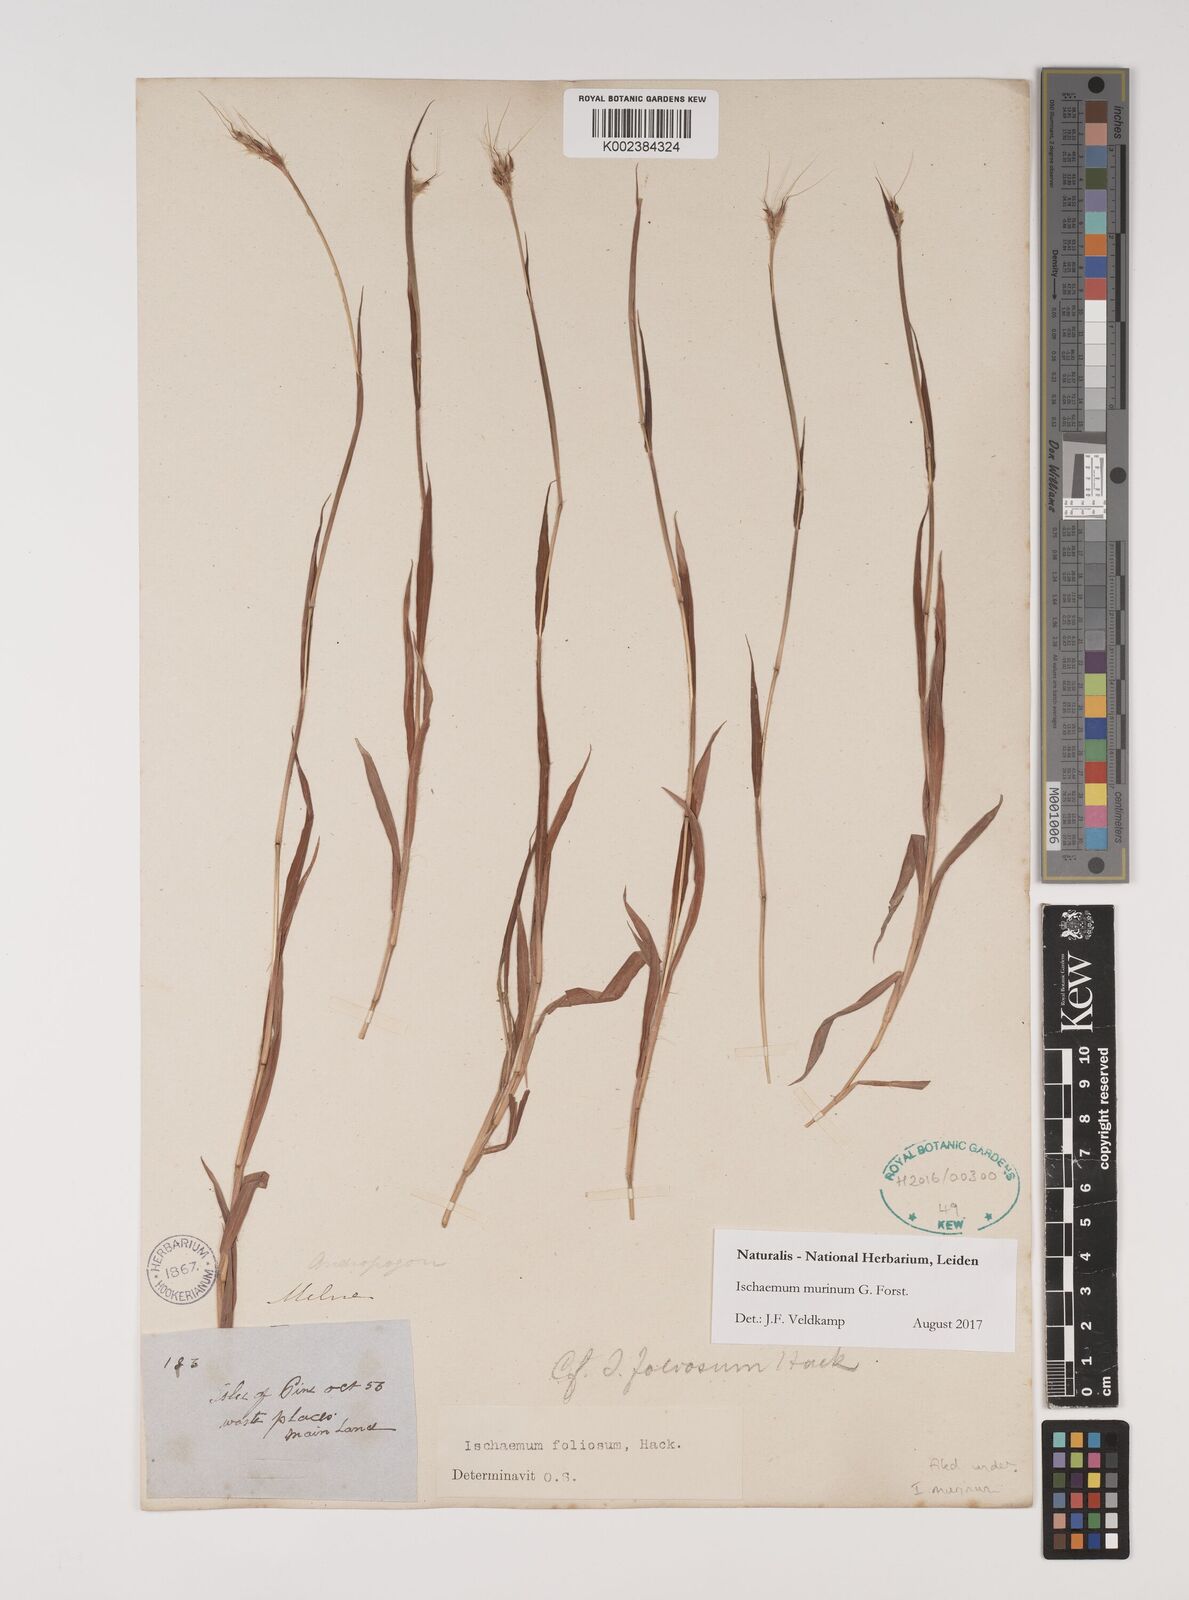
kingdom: Plantae
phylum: Tracheophyta
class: Liliopsida
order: Poales
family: Poaceae
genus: Ischaemum
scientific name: Ischaemum murinum
